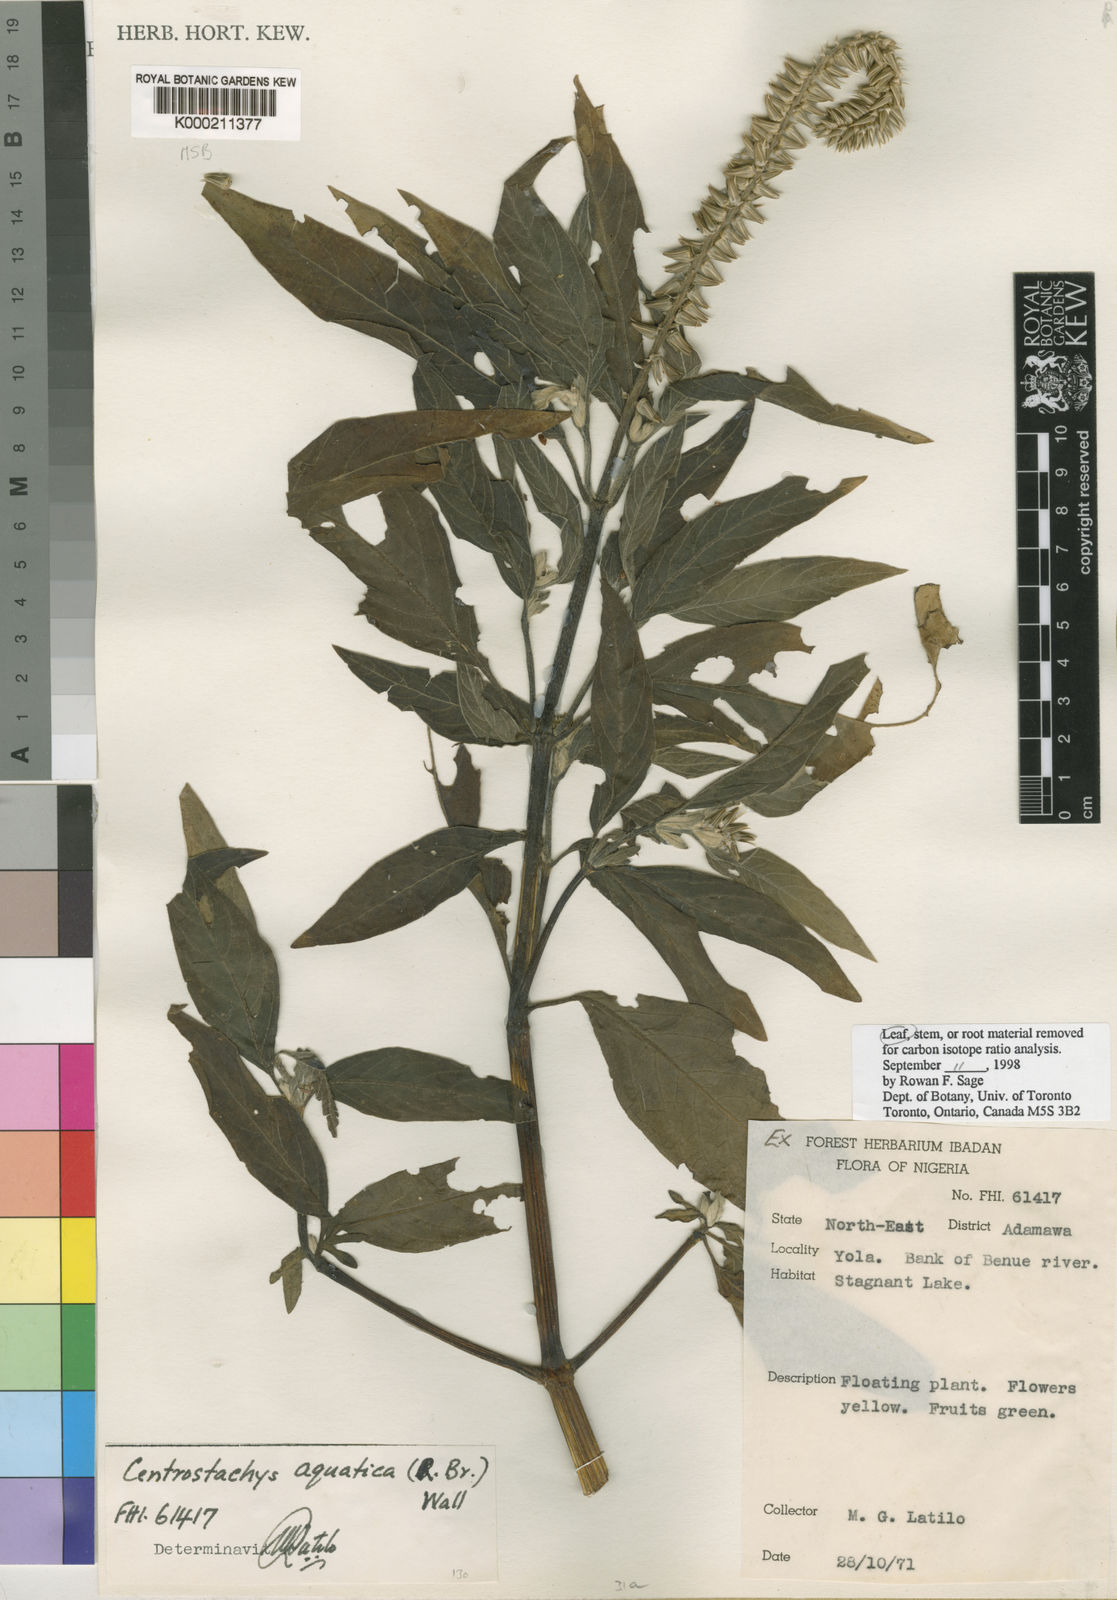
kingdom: Plantae
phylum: Tracheophyta
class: Magnoliopsida
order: Caryophyllales
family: Amaranthaceae
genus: Centrostachys
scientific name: Centrostachys aquatica
